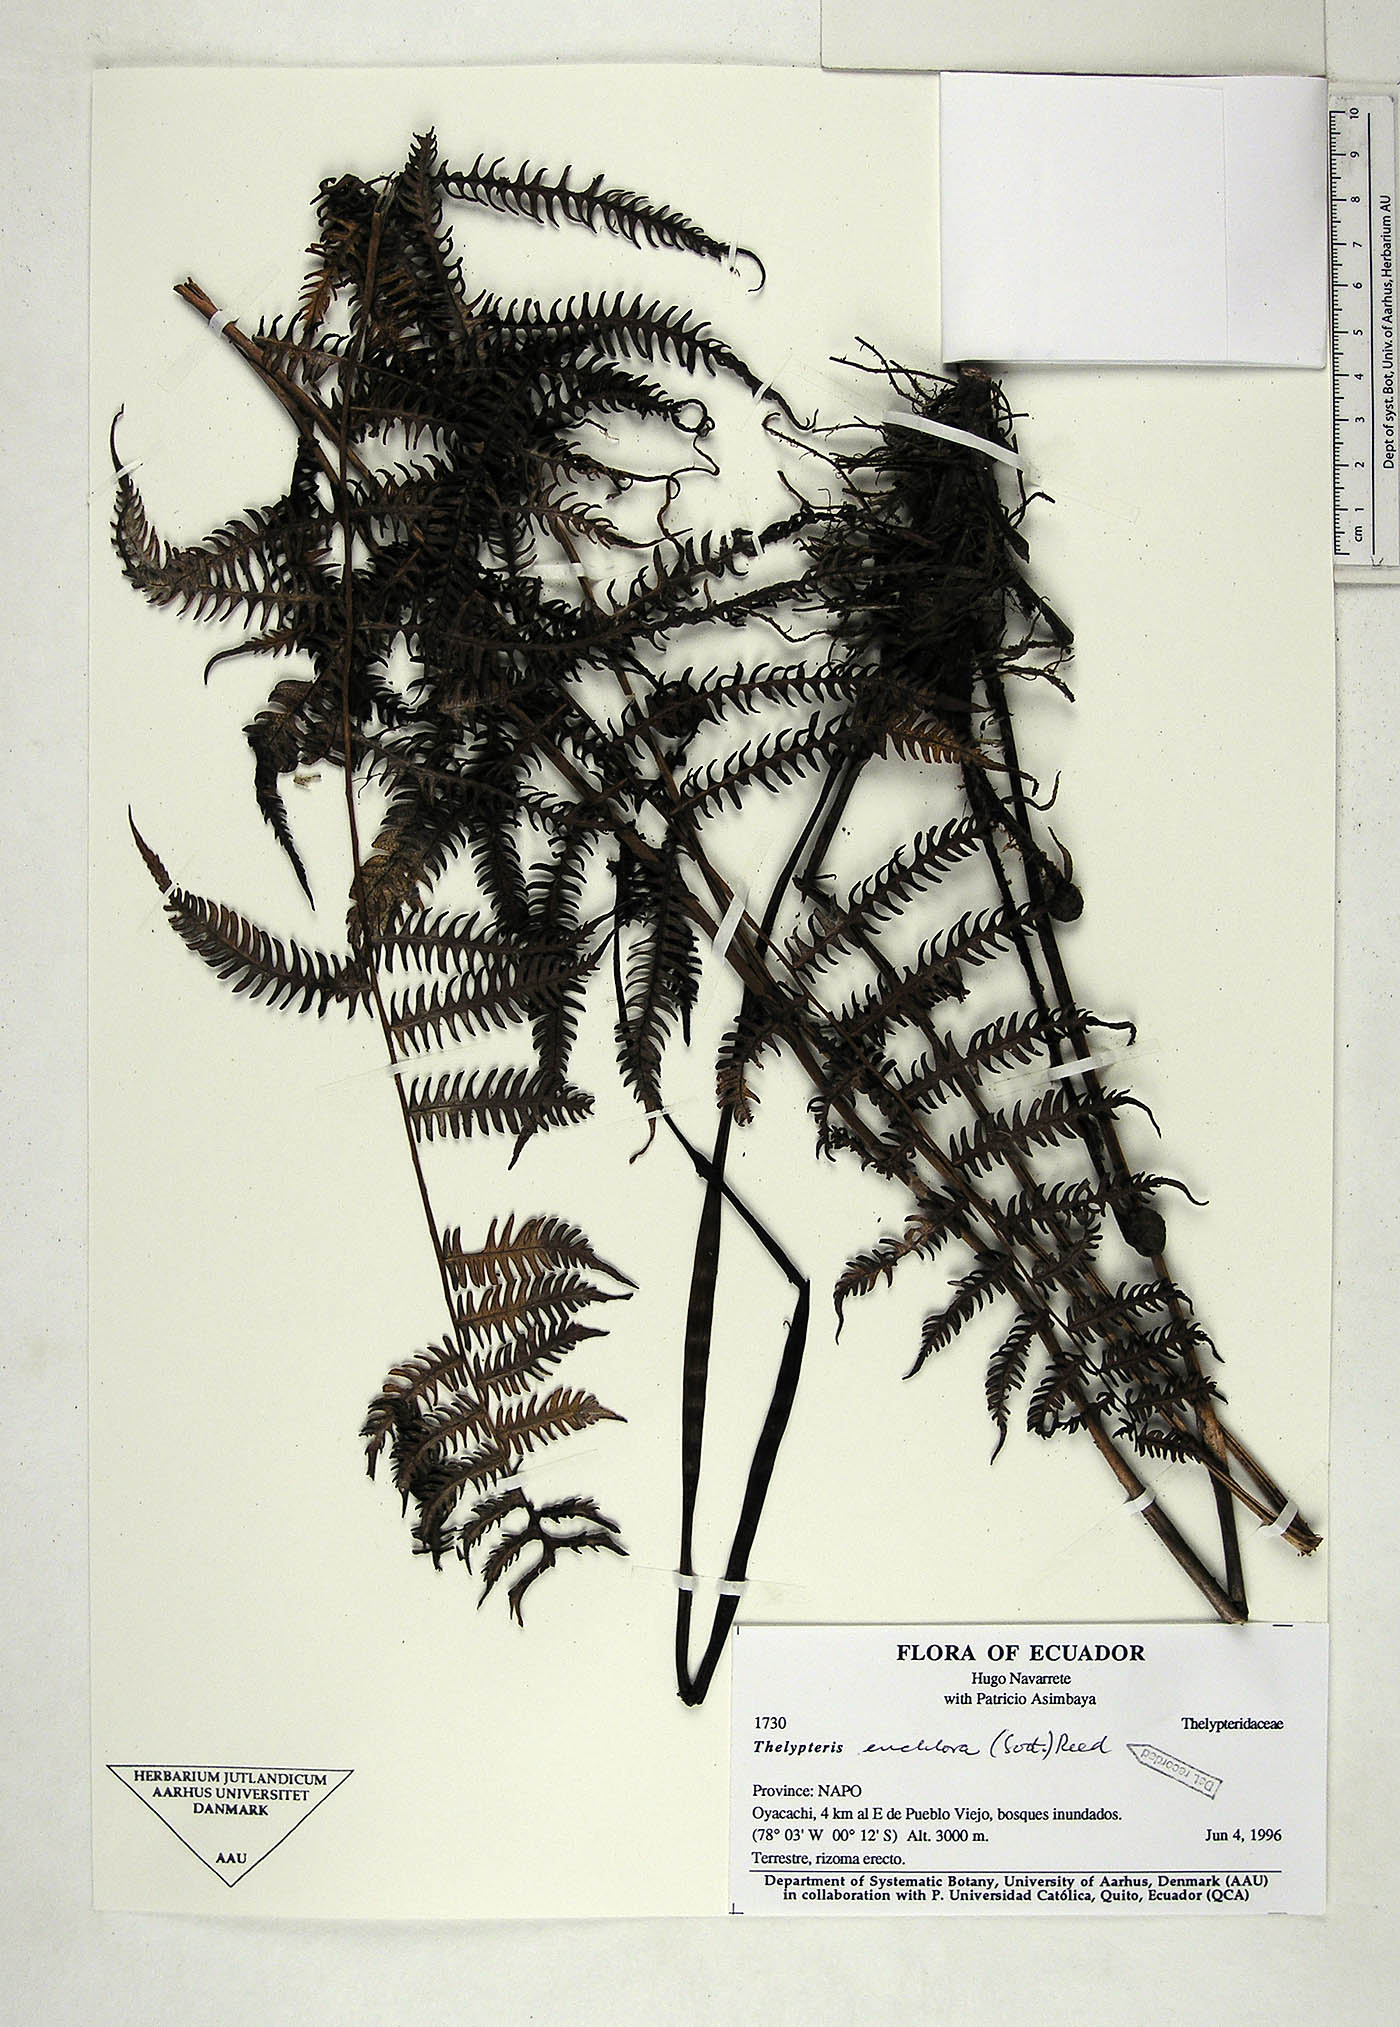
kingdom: Plantae
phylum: Tracheophyta
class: Polypodiopsida
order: Polypodiales
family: Thelypteridaceae
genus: Amauropelta
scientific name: Amauropelta euchlora
